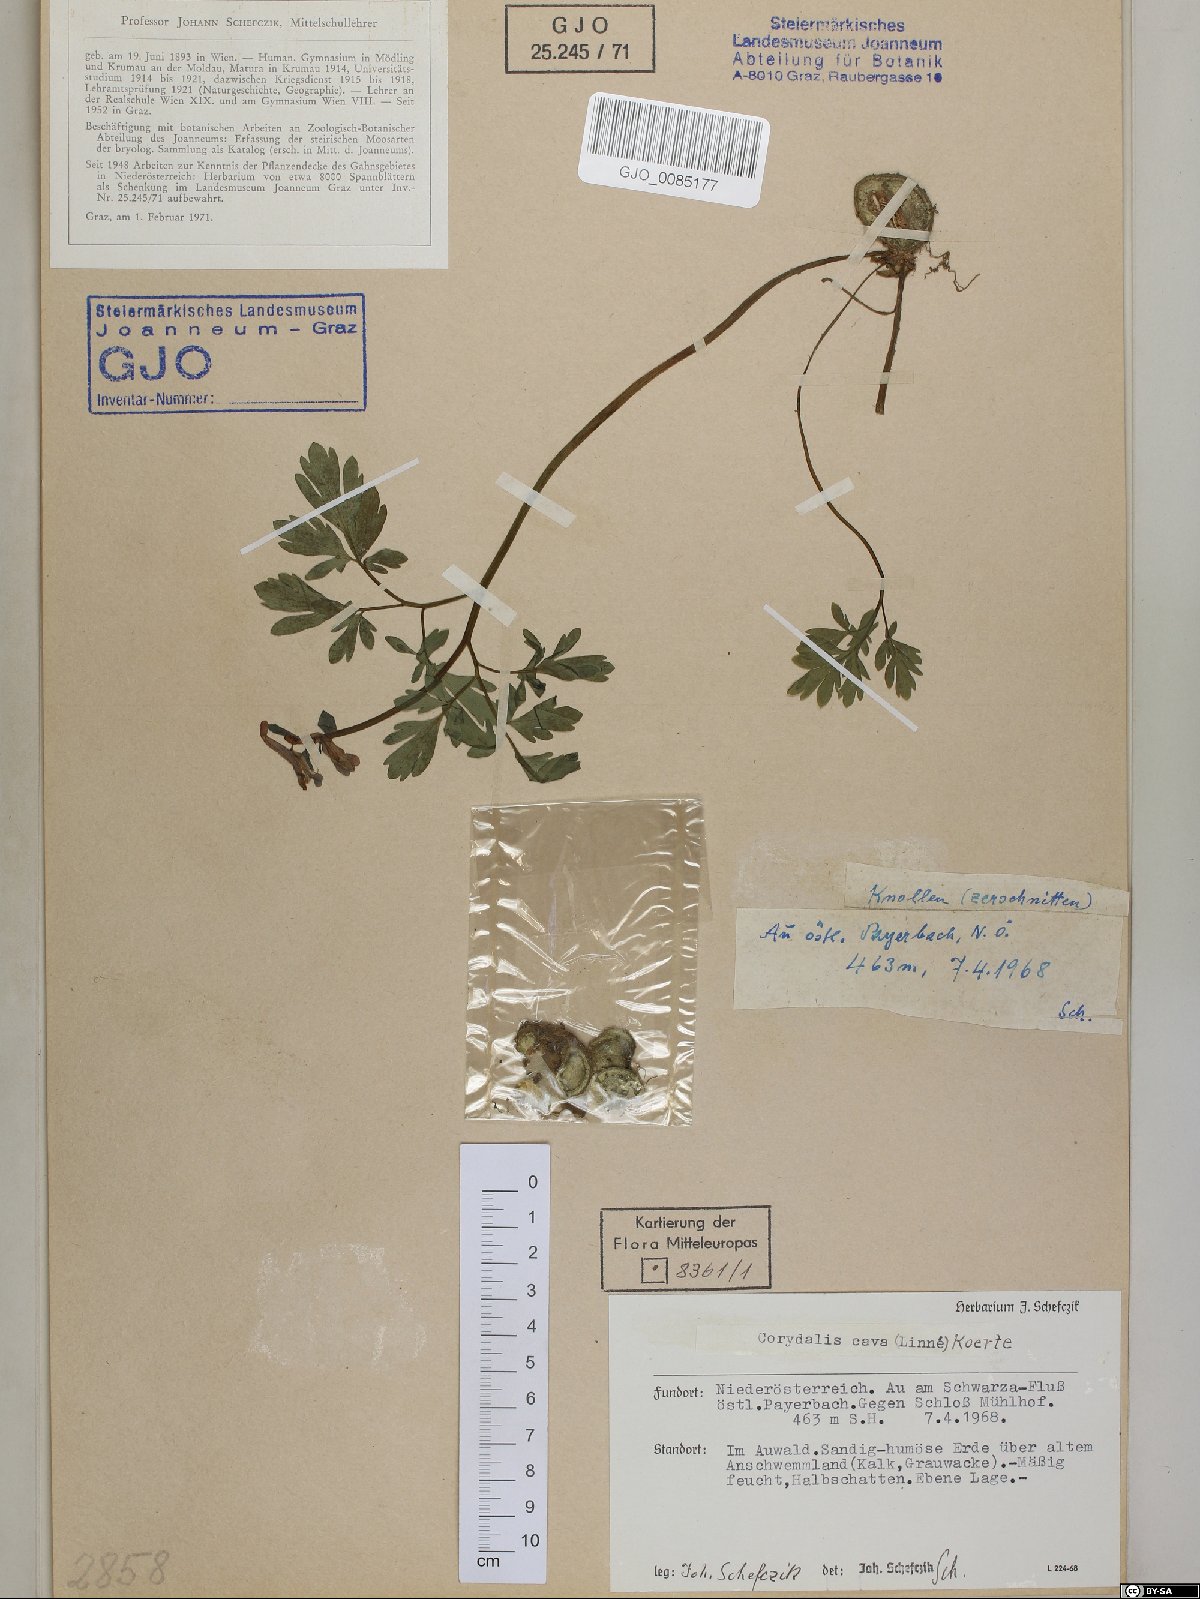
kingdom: Plantae
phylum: Tracheophyta
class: Magnoliopsida
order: Ranunculales
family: Papaveraceae
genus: Corydalis
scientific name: Corydalis cava
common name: Hollowroot
